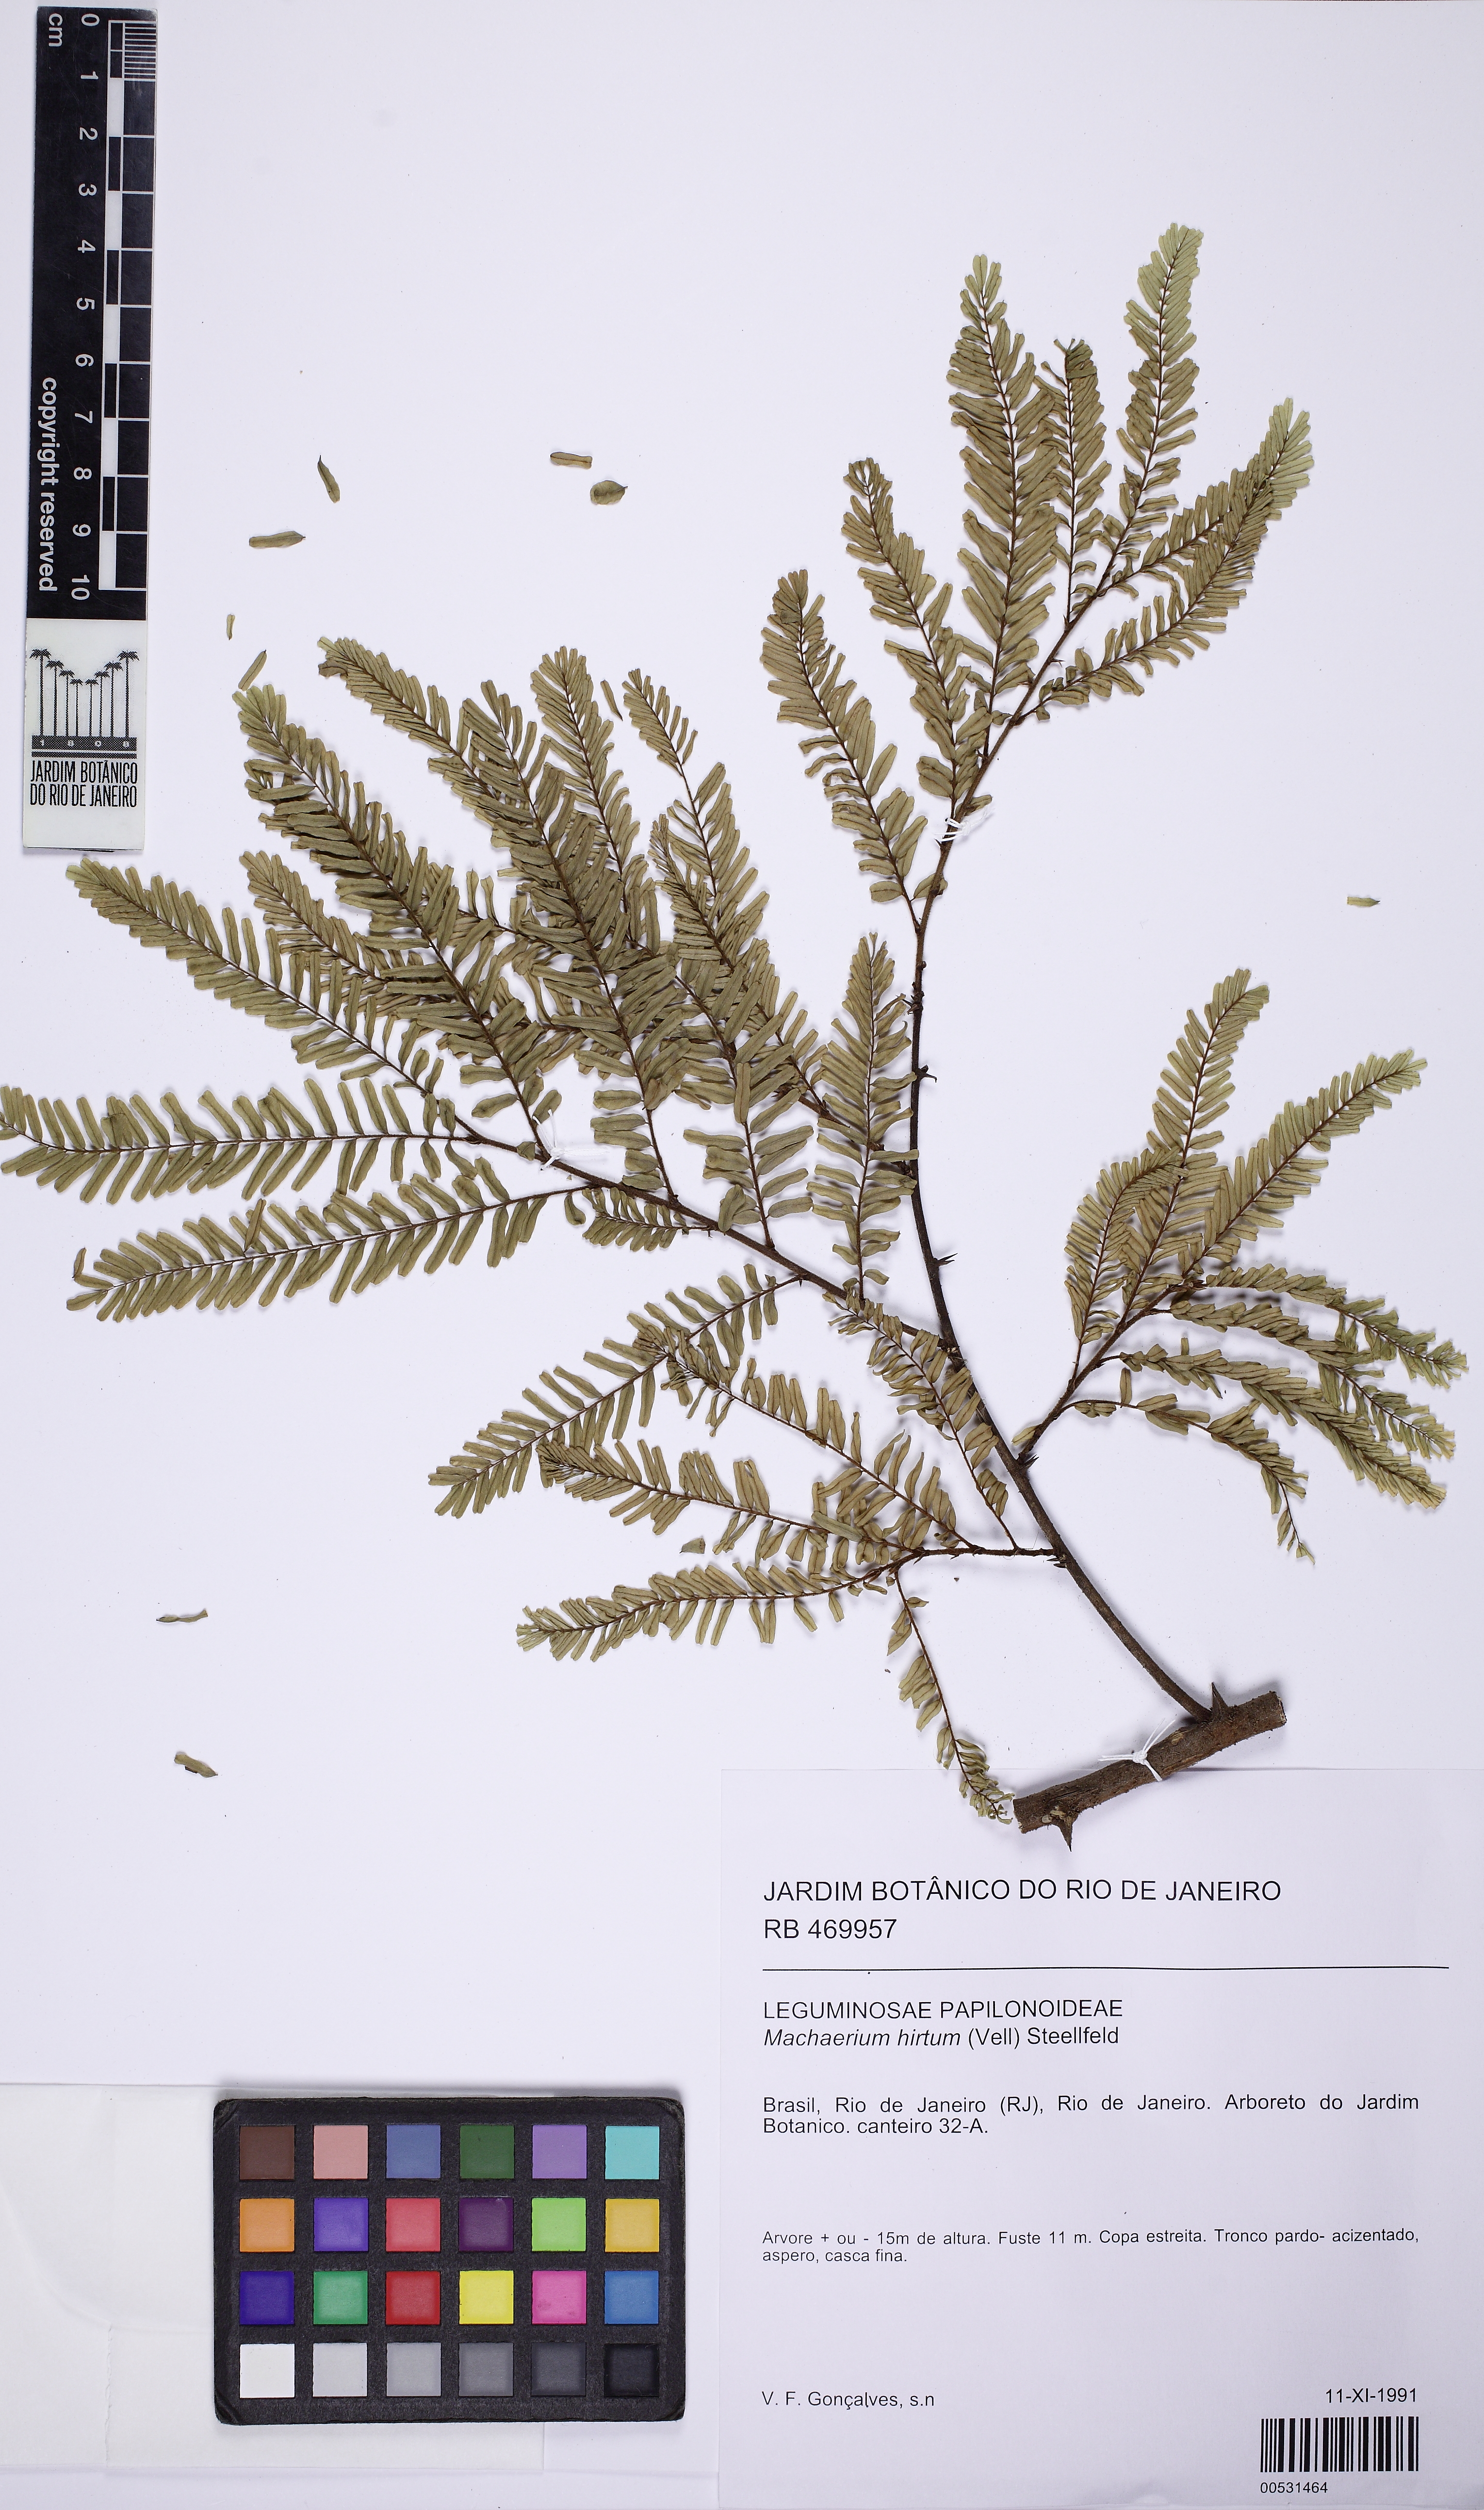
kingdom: Plantae
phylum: Tracheophyta
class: Magnoliopsida
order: Fabales
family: Fabaceae
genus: Machaerium
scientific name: Machaerium hirtum
